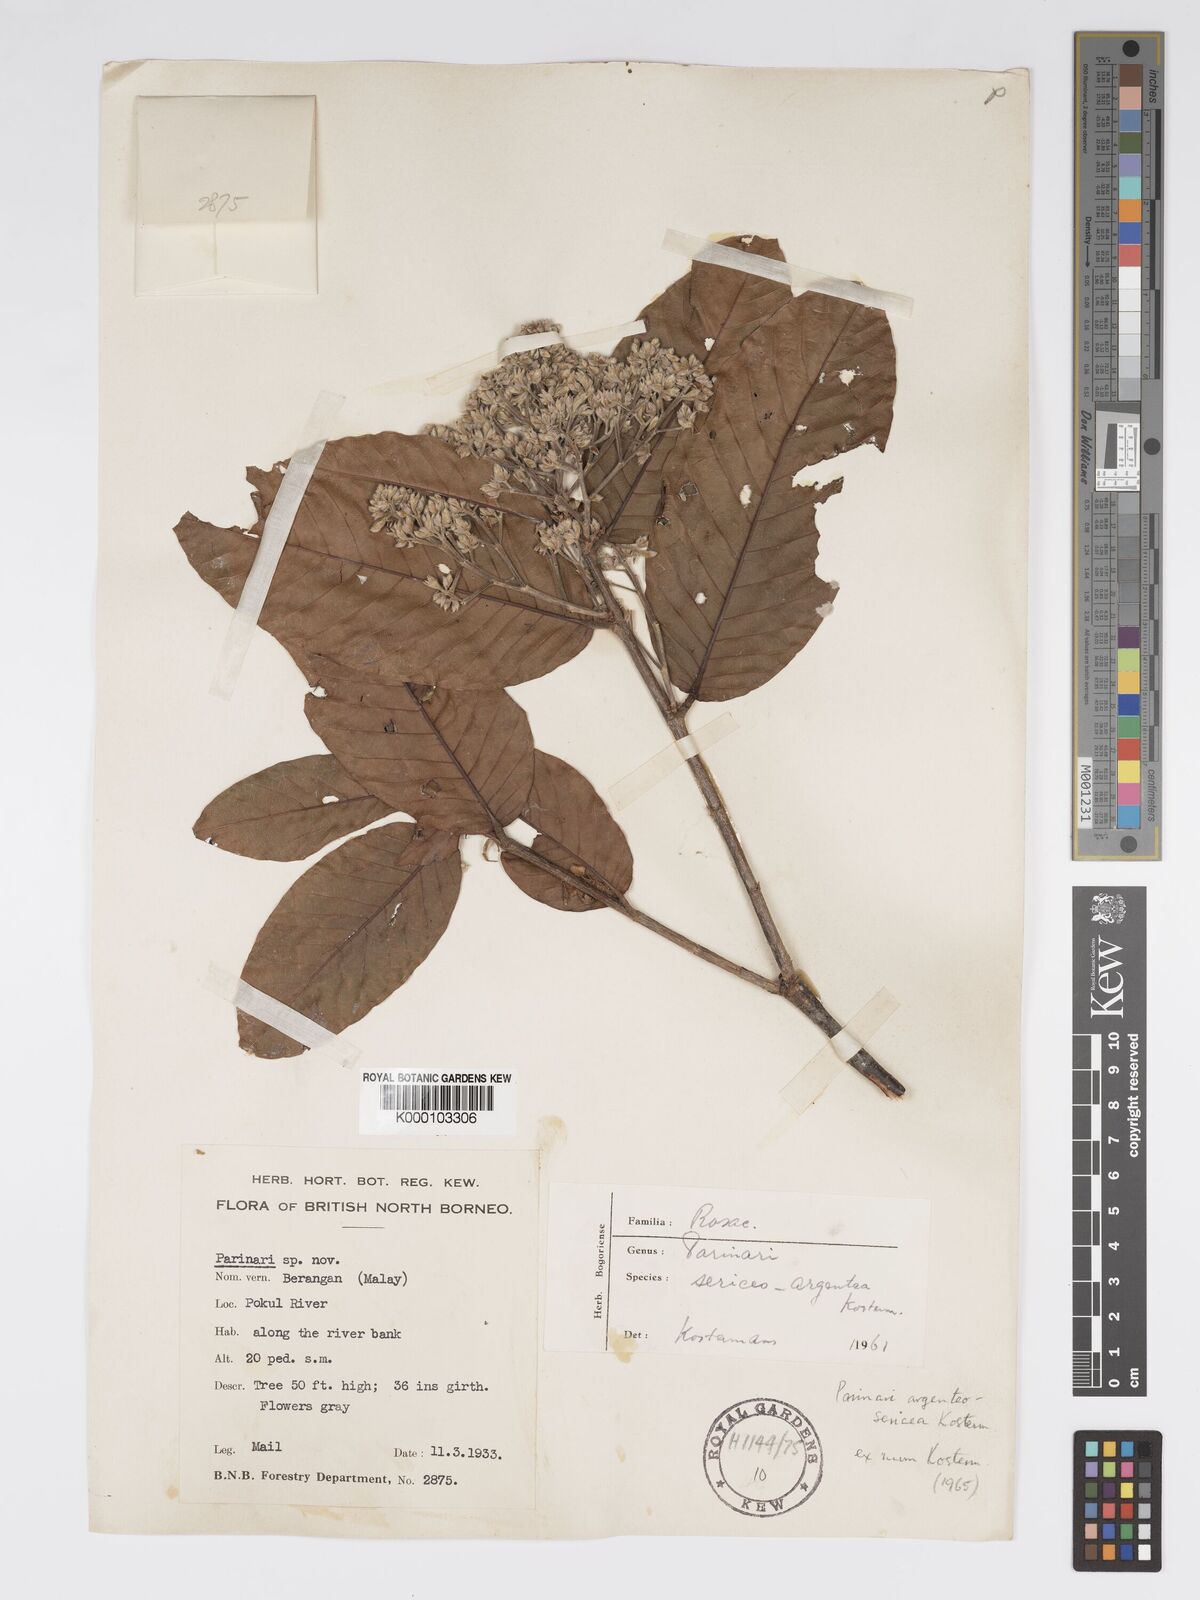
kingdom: Plantae
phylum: Tracheophyta
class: Magnoliopsida
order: Malpighiales
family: Chrysobalanaceae
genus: Parinari
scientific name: Parinari argenteosericea
